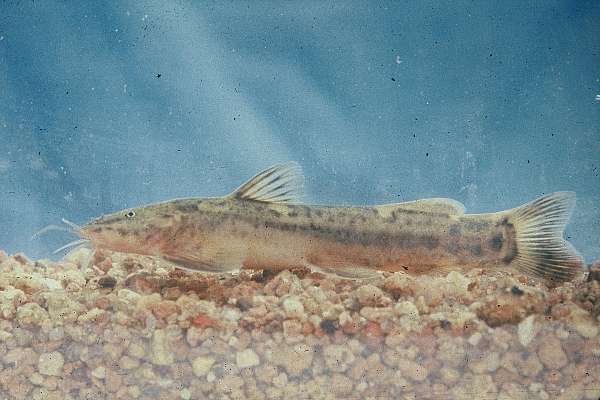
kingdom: Animalia
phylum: Chordata
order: Siluriformes
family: Amphiliidae
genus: Amphilius
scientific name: Amphilius uranoscopus
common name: Stargazer mountain catfish
